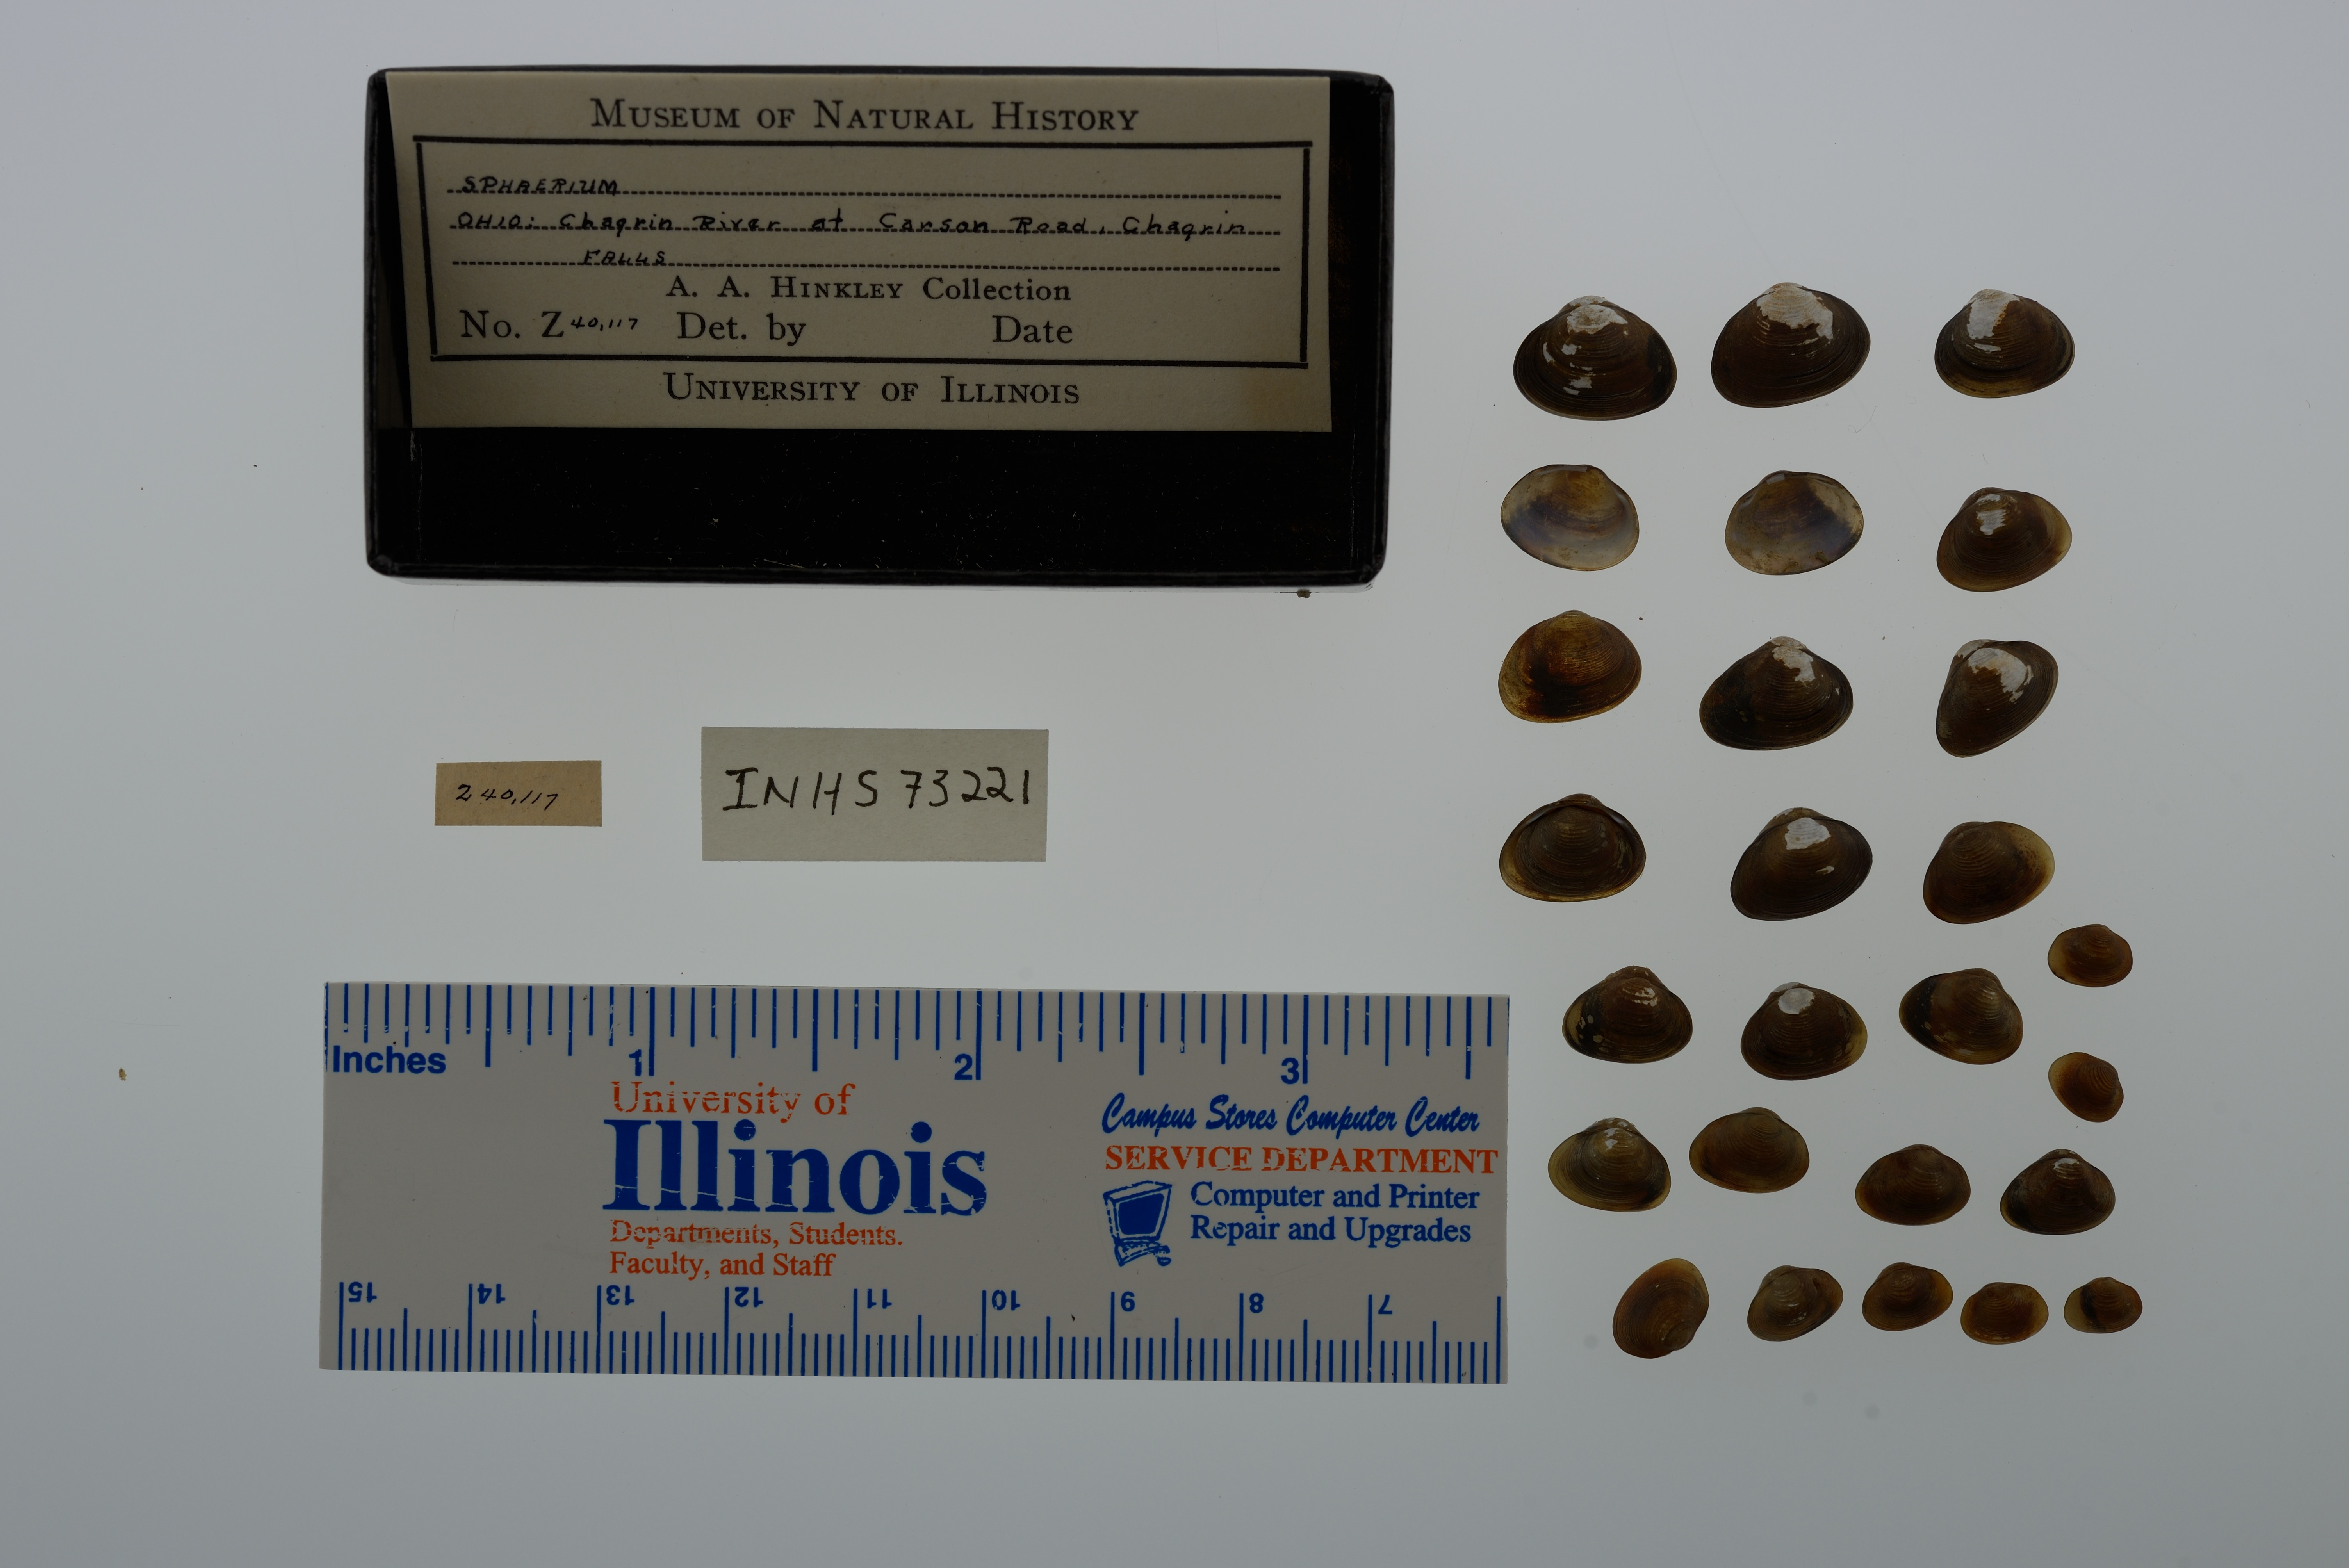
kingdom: Animalia
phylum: Mollusca
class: Bivalvia
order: Sphaeriida
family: Sphaeriidae
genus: Sphaerium
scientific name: Sphaerium
